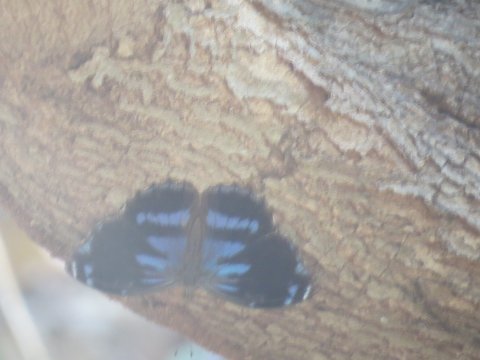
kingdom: Animalia
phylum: Arthropoda
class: Insecta
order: Lepidoptera
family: Nymphalidae
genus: Myscelia
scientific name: Myscelia cyananthe
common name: Blackened Bluewing
